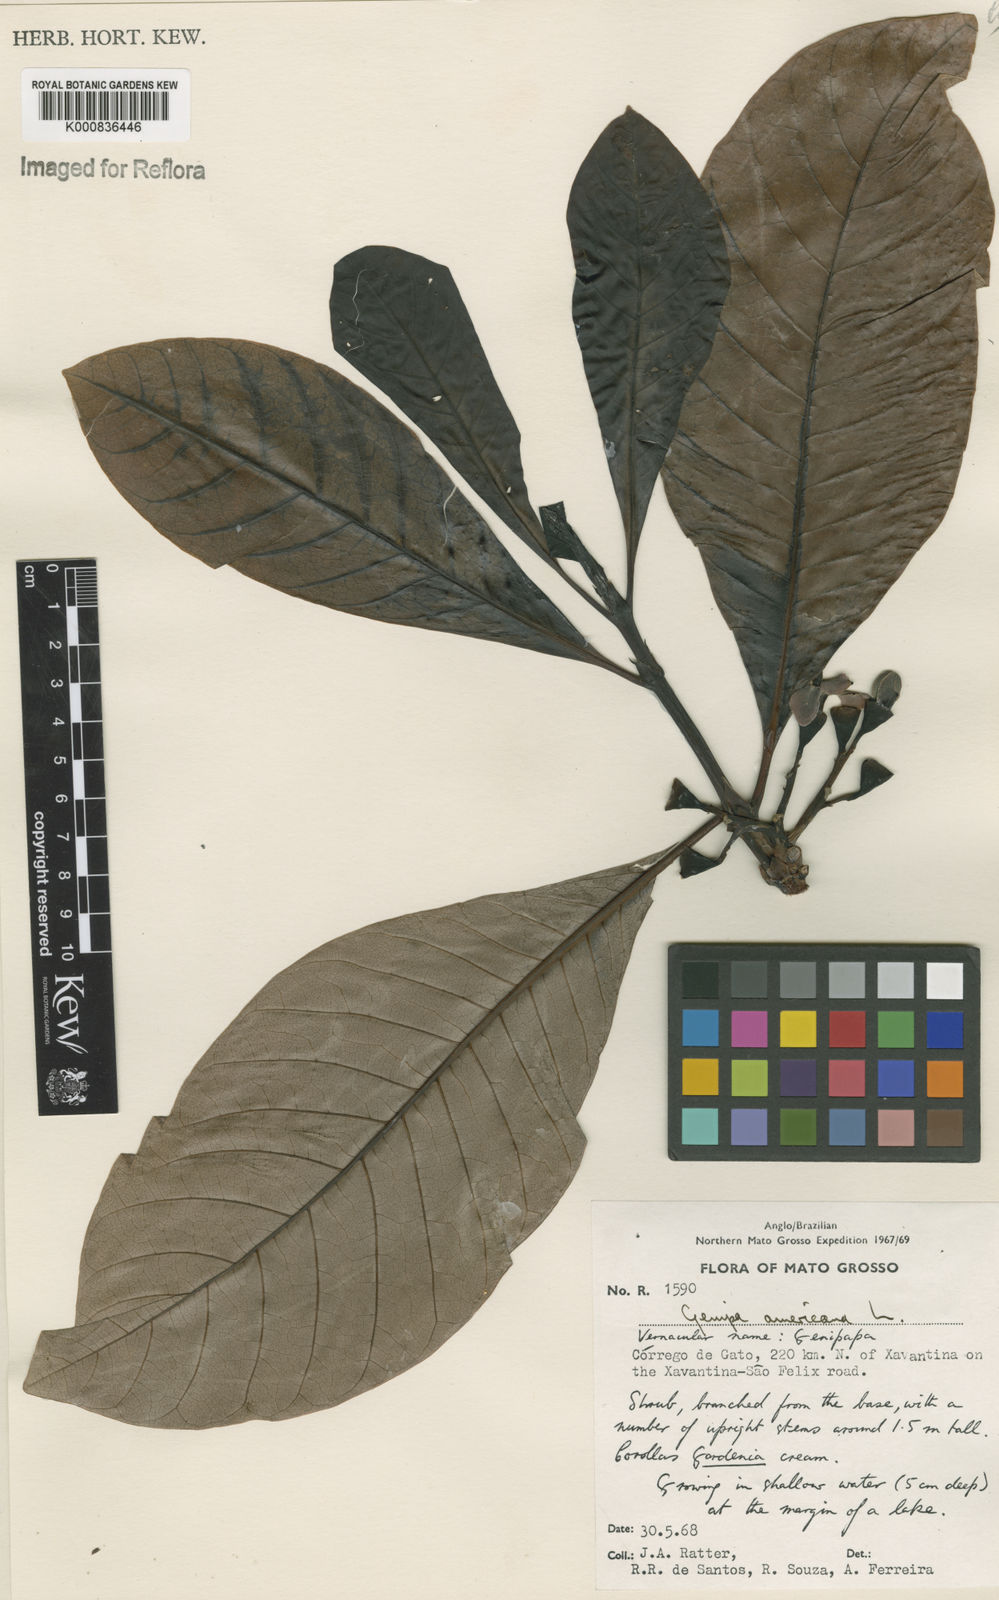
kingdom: Plantae
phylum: Tracheophyta
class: Magnoliopsida
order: Gentianales
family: Rubiaceae
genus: Genipa
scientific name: Genipa americana
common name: Genipap
